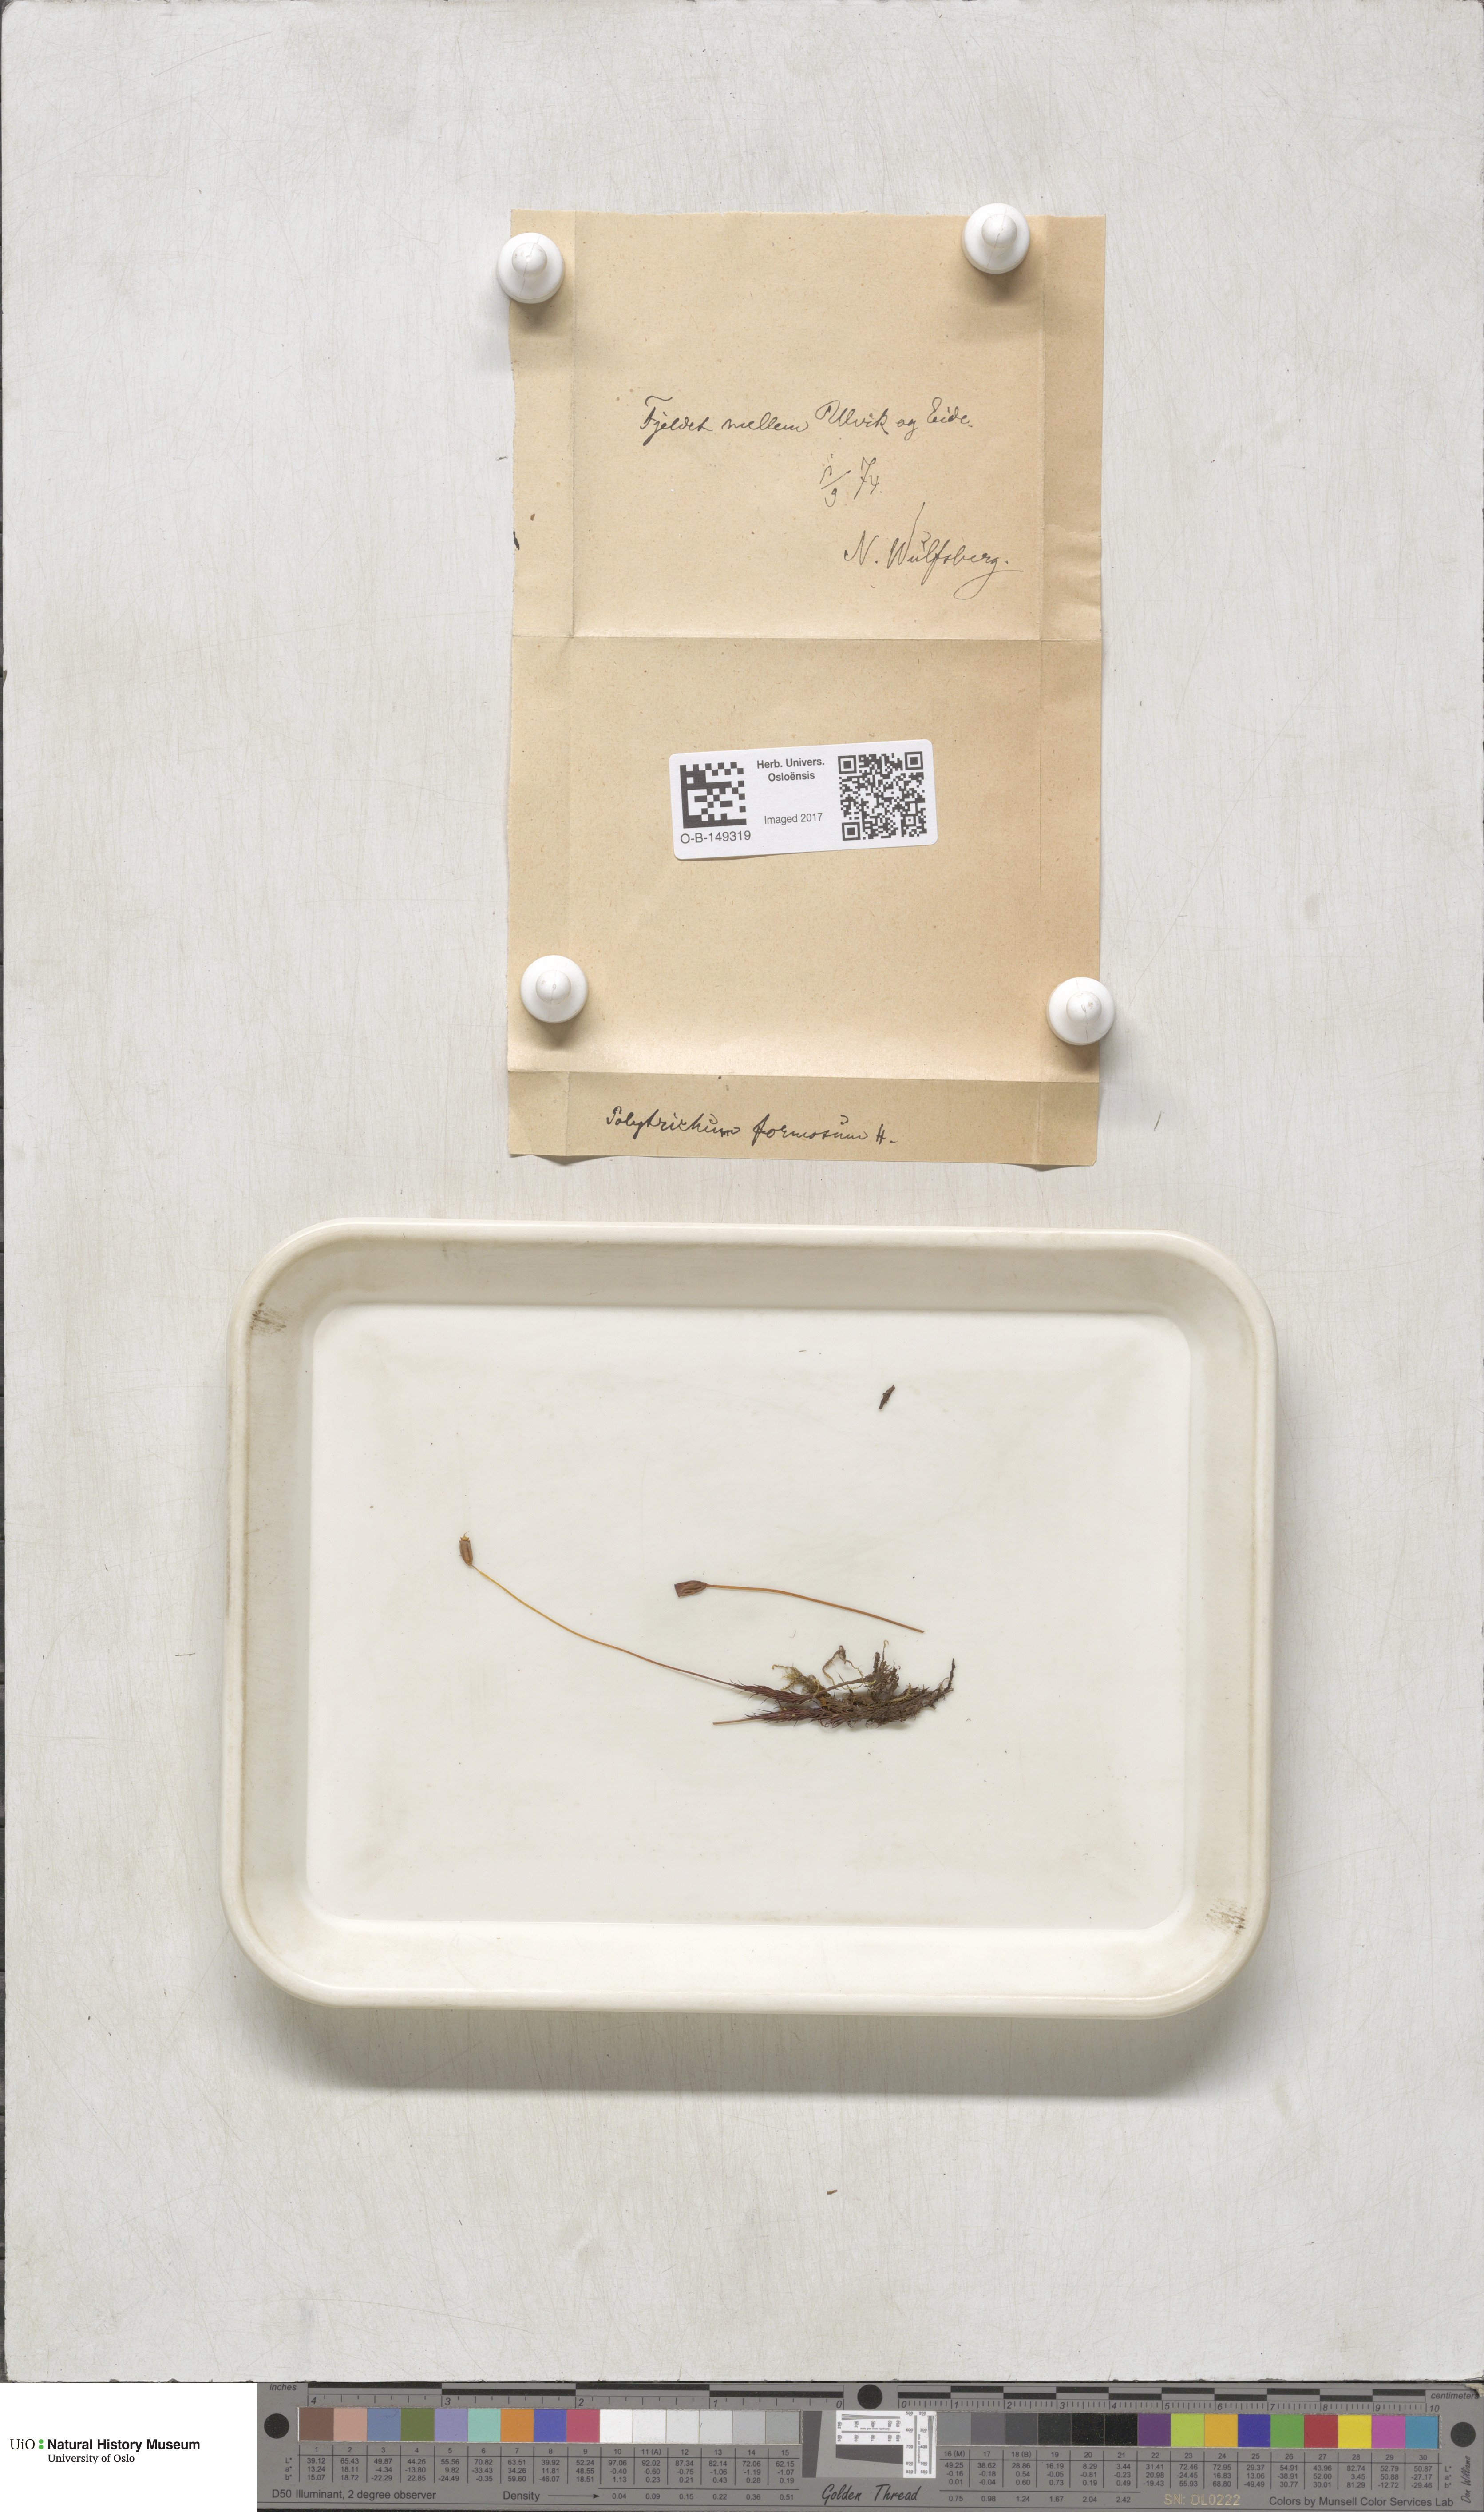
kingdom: Plantae
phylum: Bryophyta
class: Polytrichopsida
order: Polytrichales
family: Polytrichaceae
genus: Polytrichum
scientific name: Polytrichum formosum
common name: Bank haircap moss
